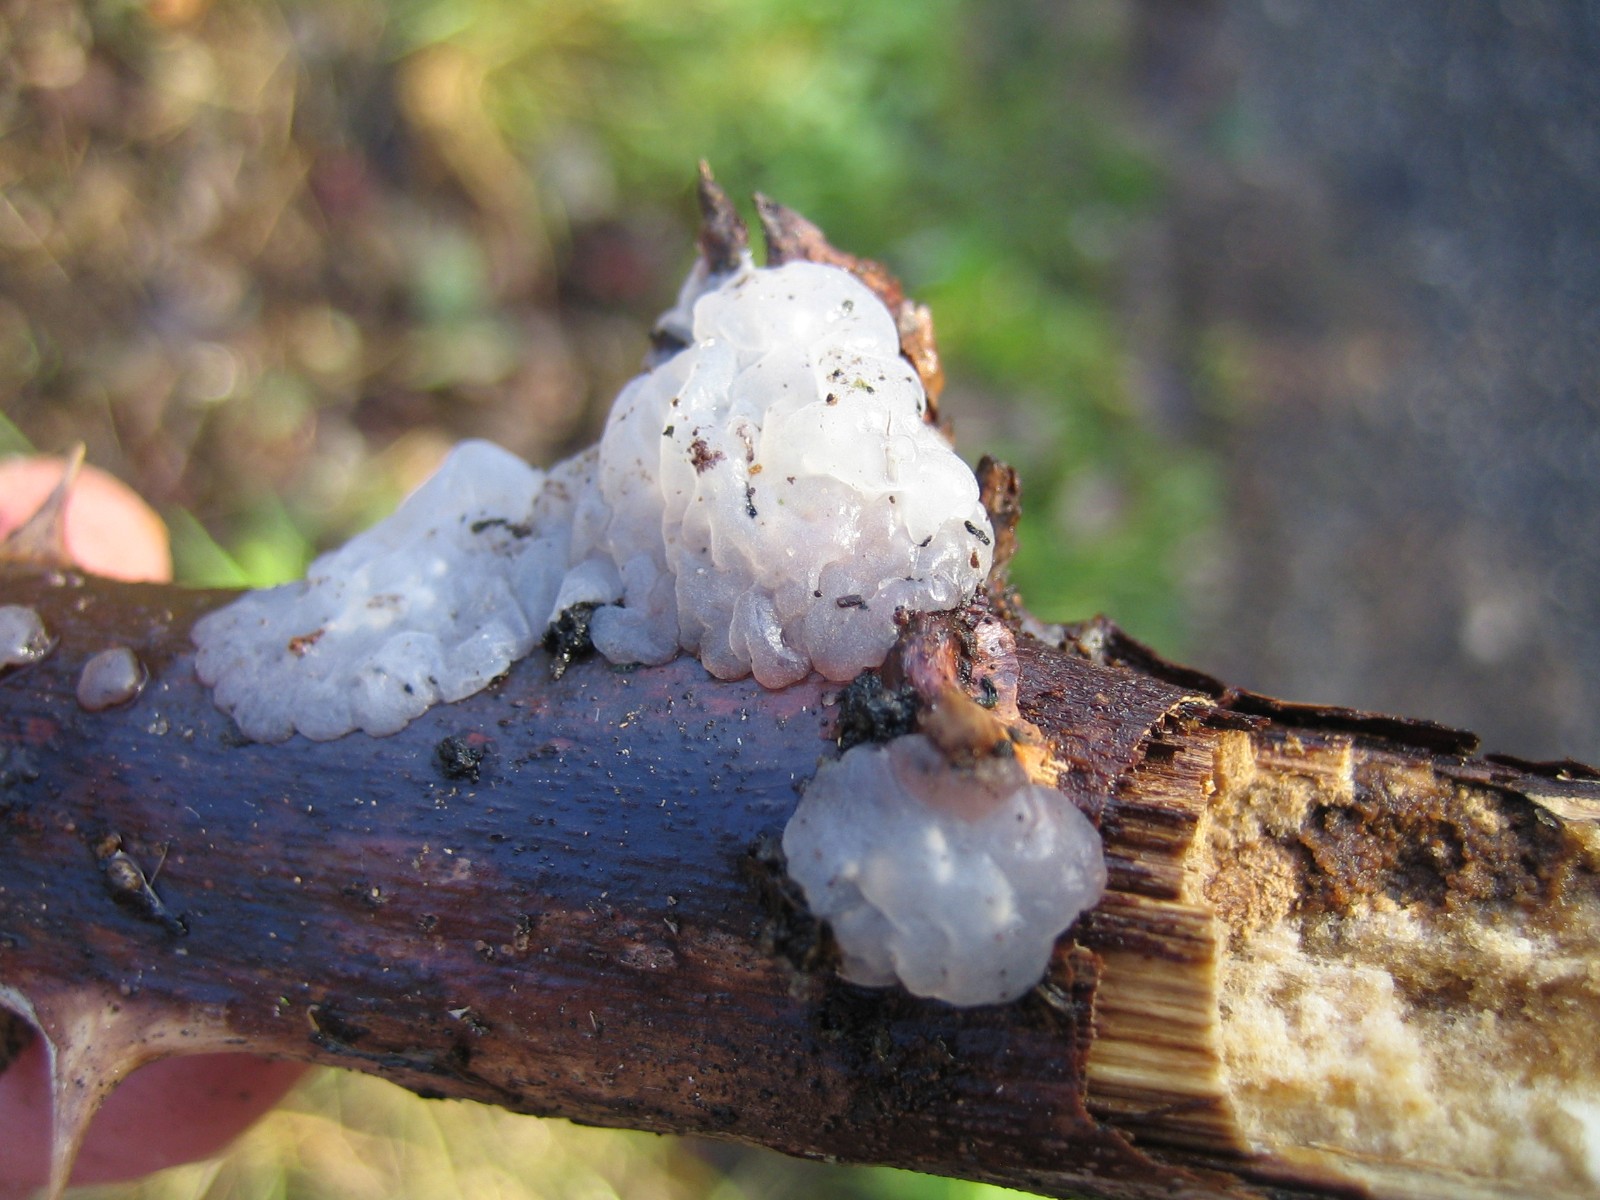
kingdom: Fungi
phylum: Basidiomycota
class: Agaricomycetes
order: Auriculariales
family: Hyaloriaceae
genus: Myxarium
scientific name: Myxarium nucleatum
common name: klar bævretop
